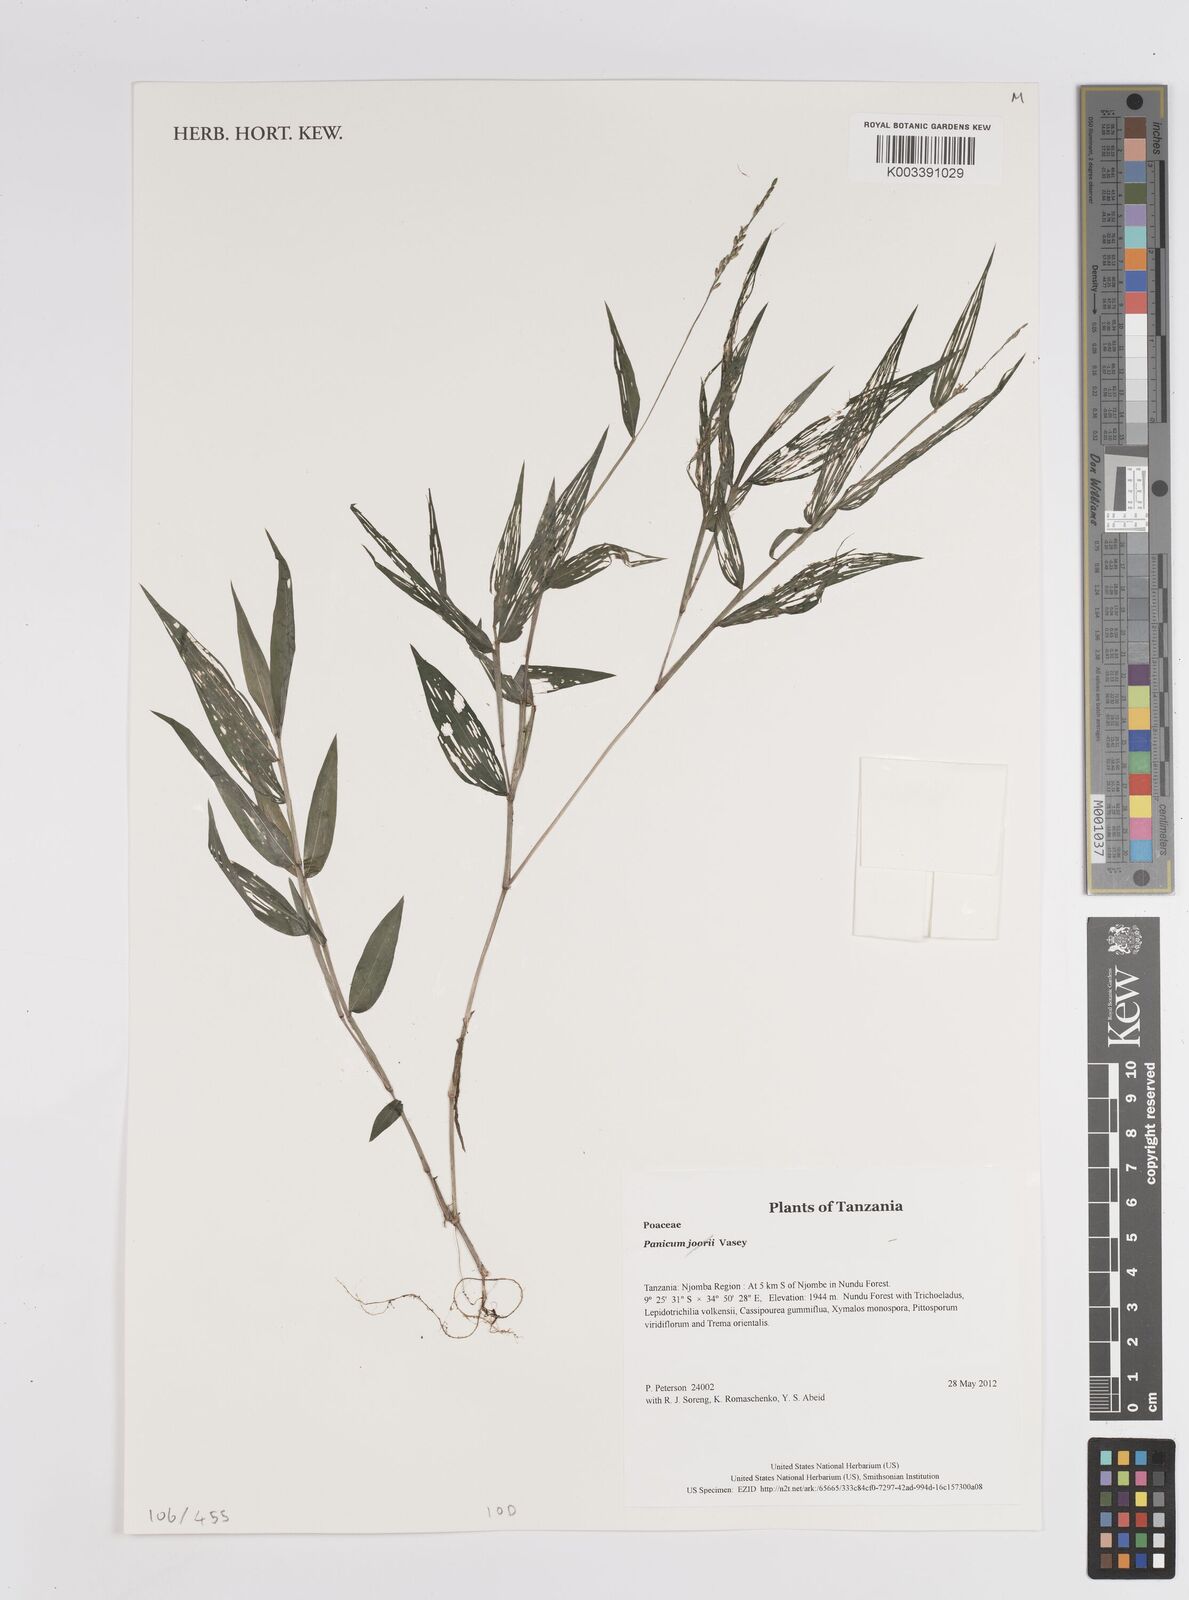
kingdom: Plantae
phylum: Tracheophyta
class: Liliopsida
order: Poales
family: Poaceae
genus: Panicum
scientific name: Panicum monticola
